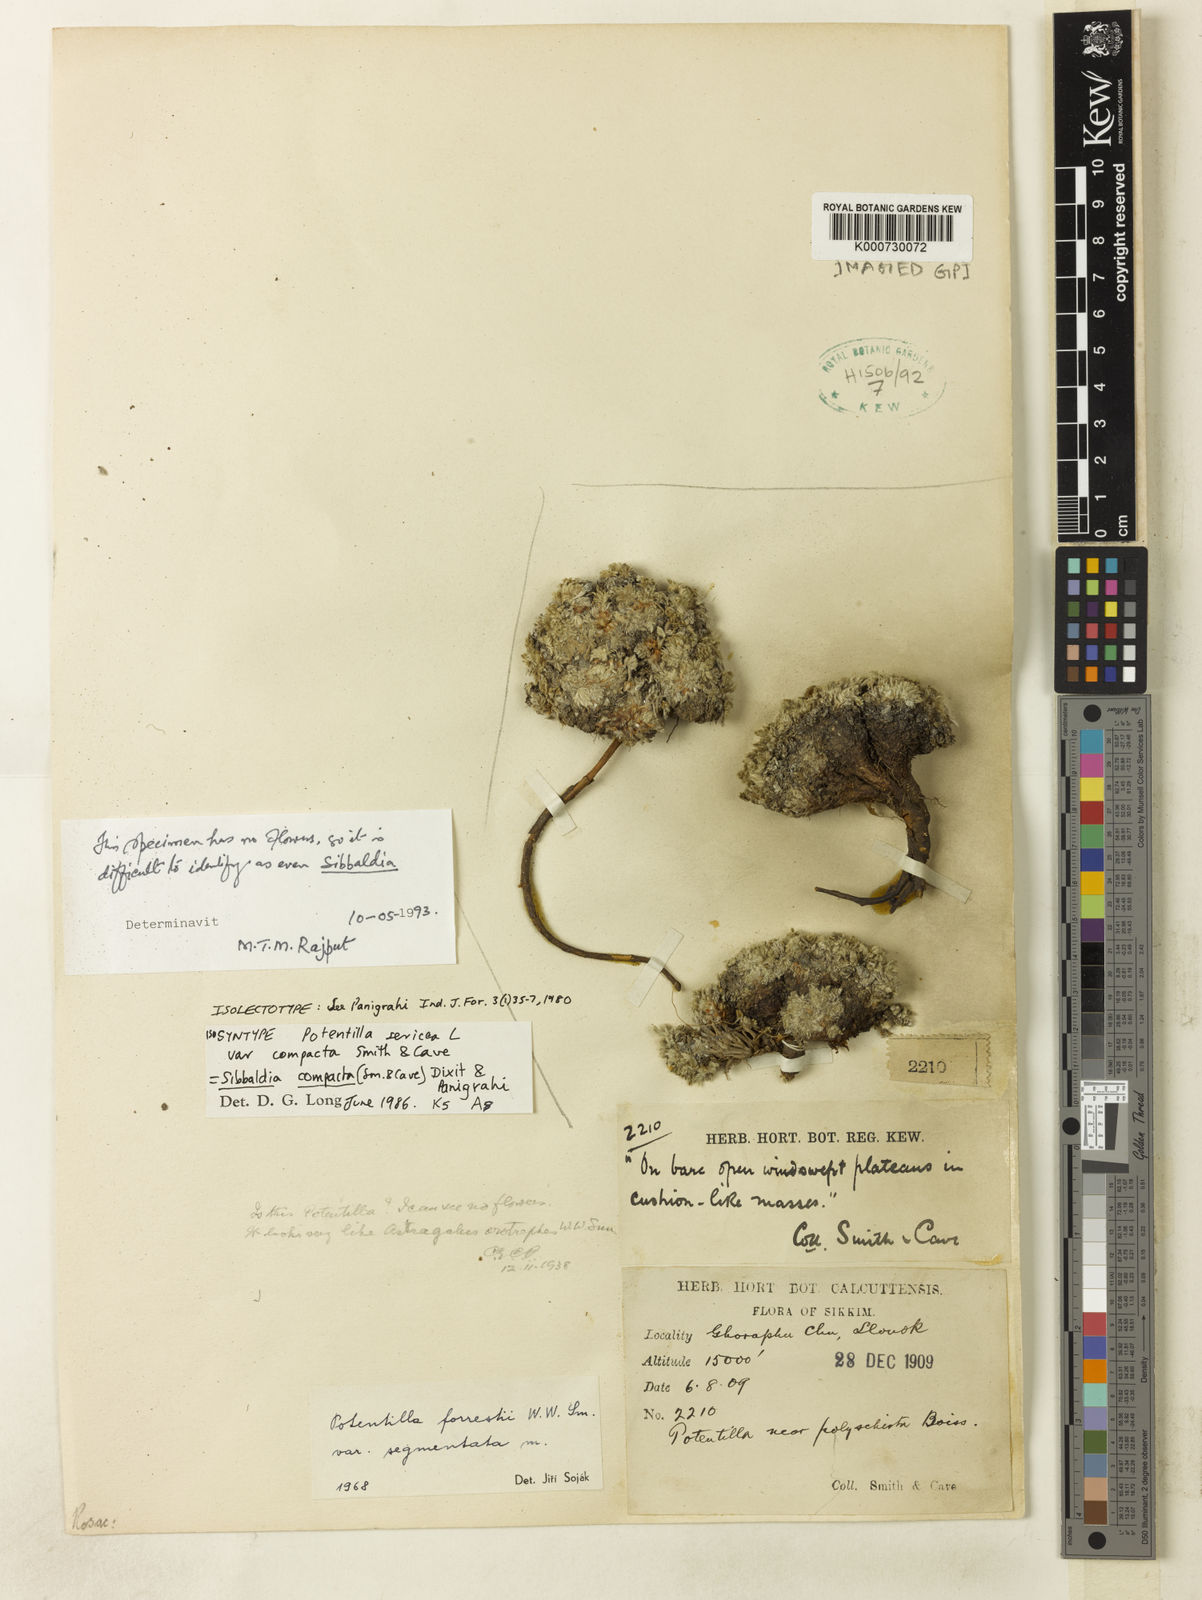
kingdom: Plantae
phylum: Tracheophyta
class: Magnoliopsida
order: Rosales
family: Rosaceae
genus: Sibbaldia
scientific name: Sibbaldia compacta
